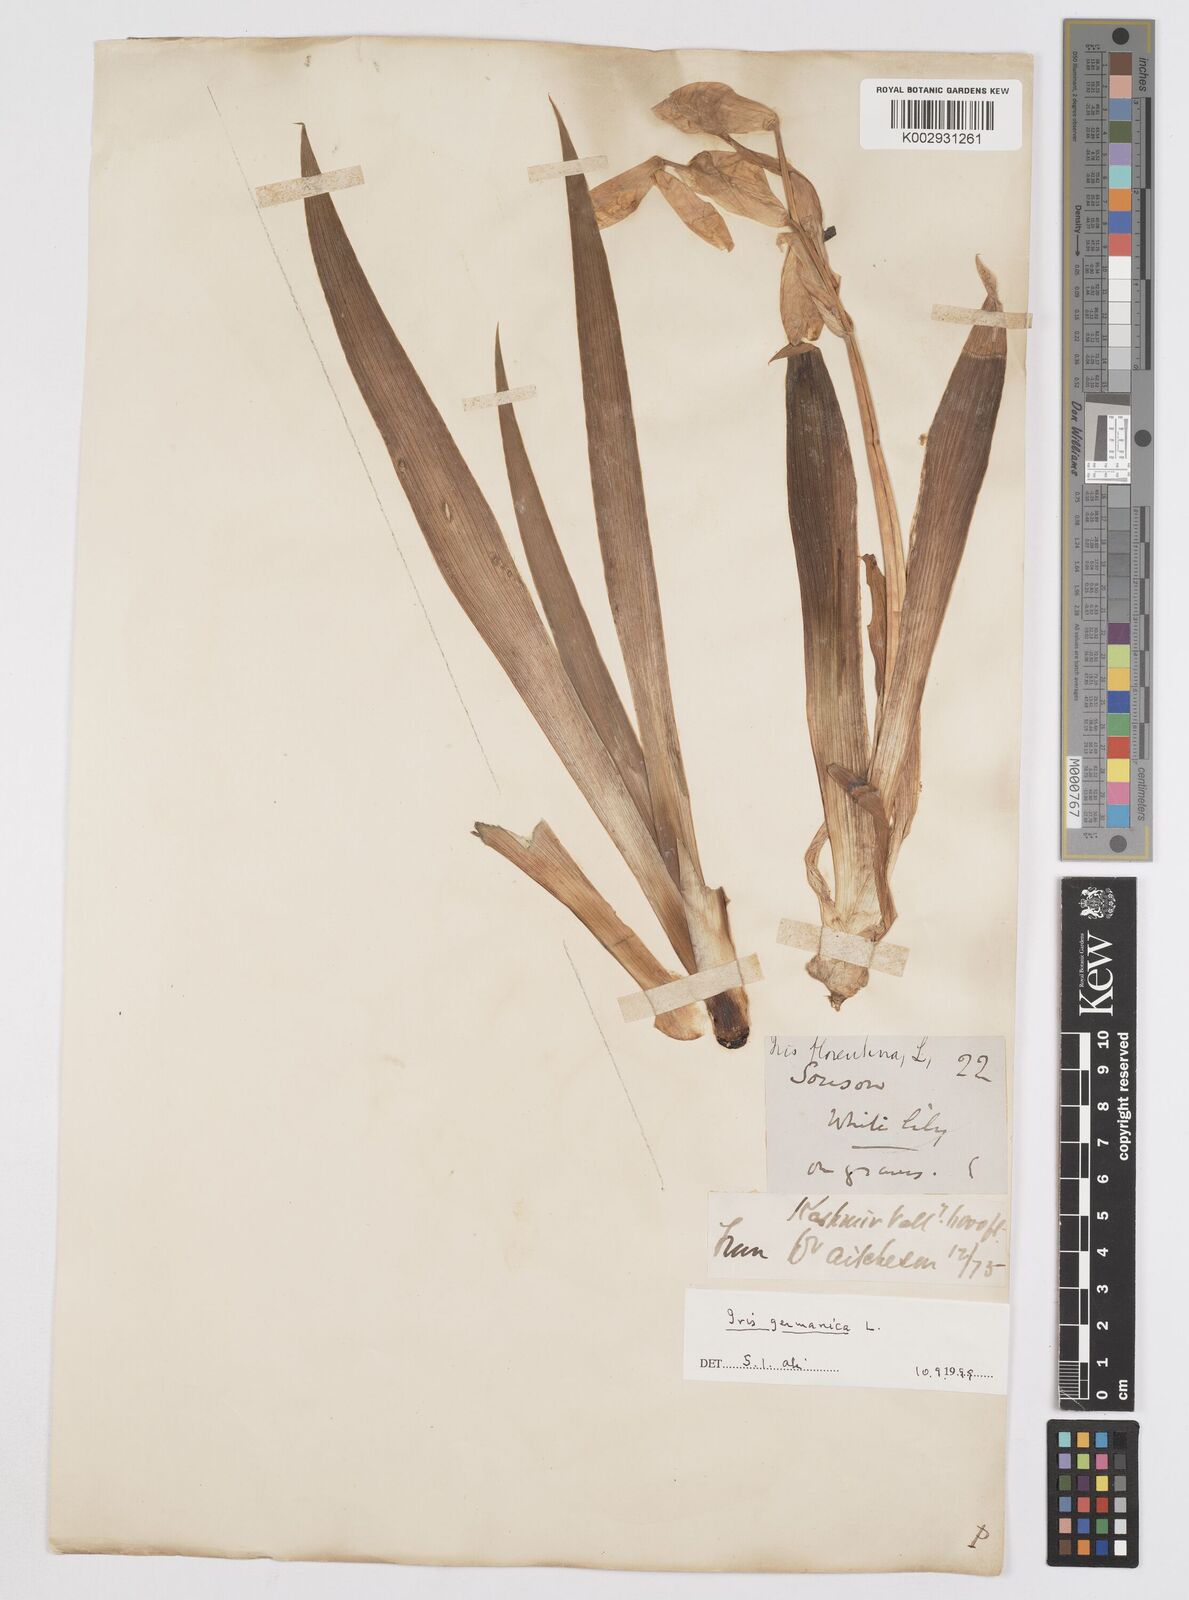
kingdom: Plantae
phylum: Tracheophyta
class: Liliopsida
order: Asparagales
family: Iridaceae
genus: Iris
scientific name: Iris germanica
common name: German iris
